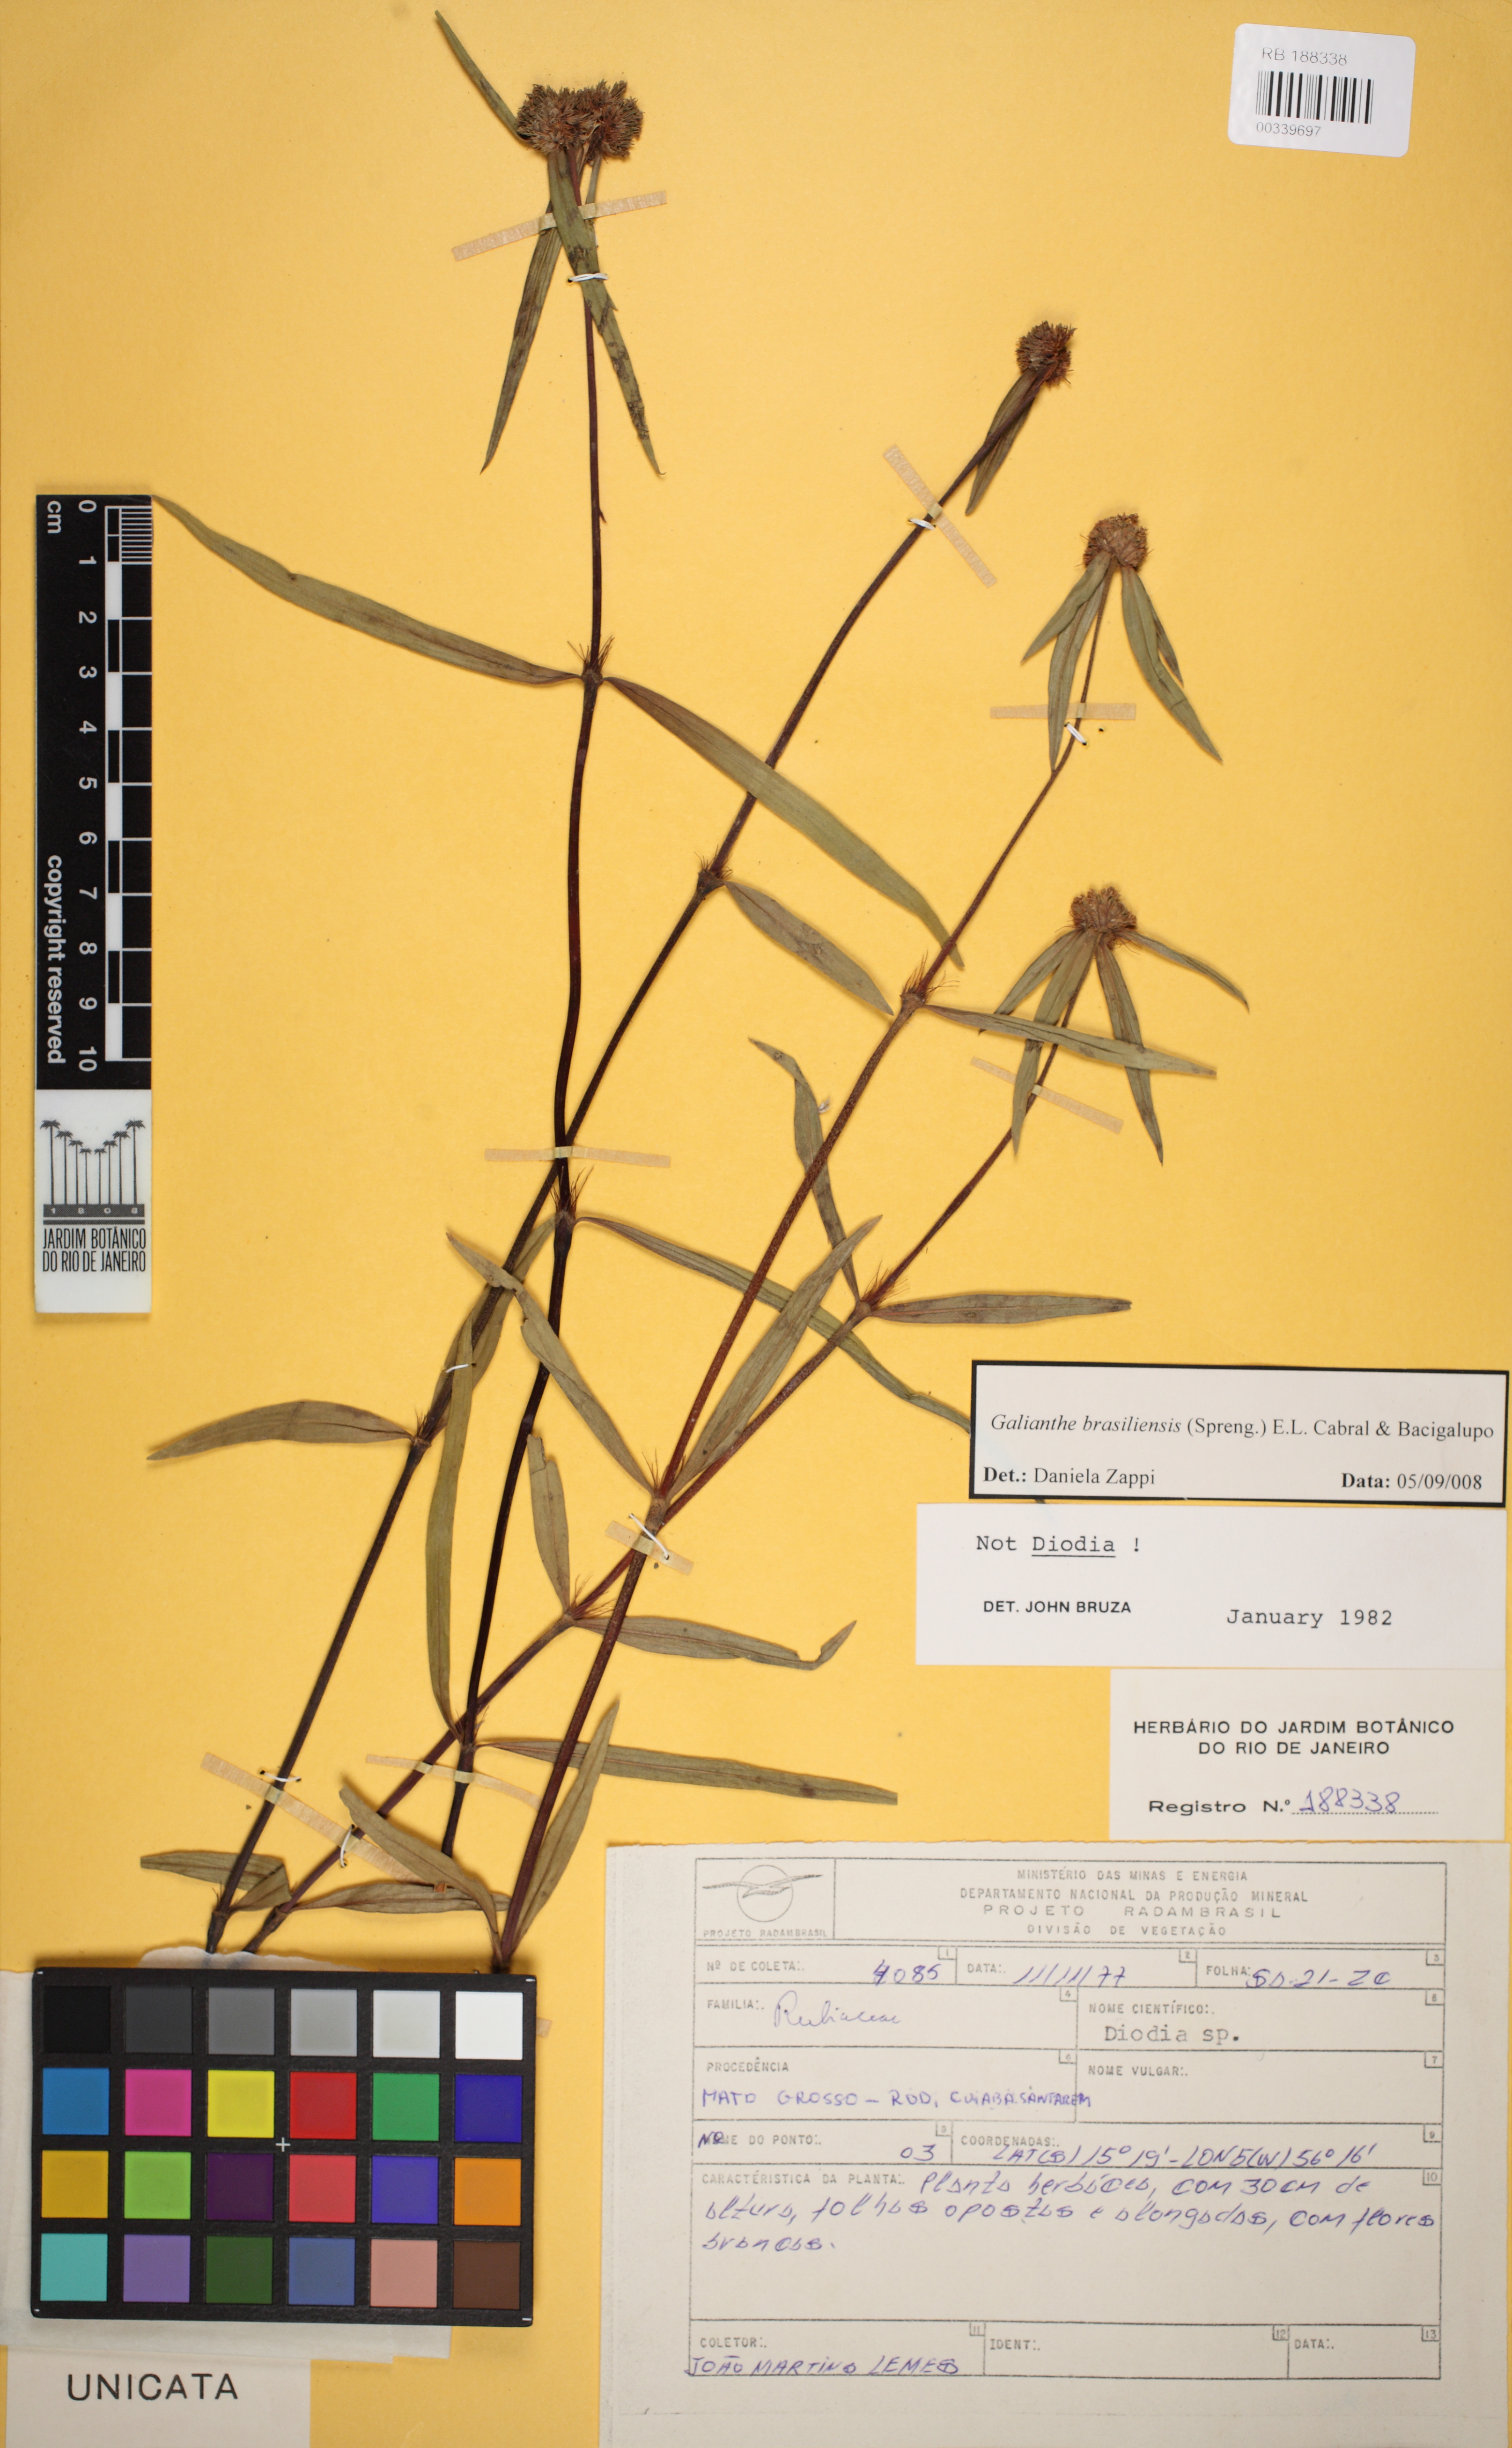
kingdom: Plantae
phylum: Tracheophyta
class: Magnoliopsida
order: Gentianales
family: Rubiaceae
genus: Spermacoce
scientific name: Spermacoce
